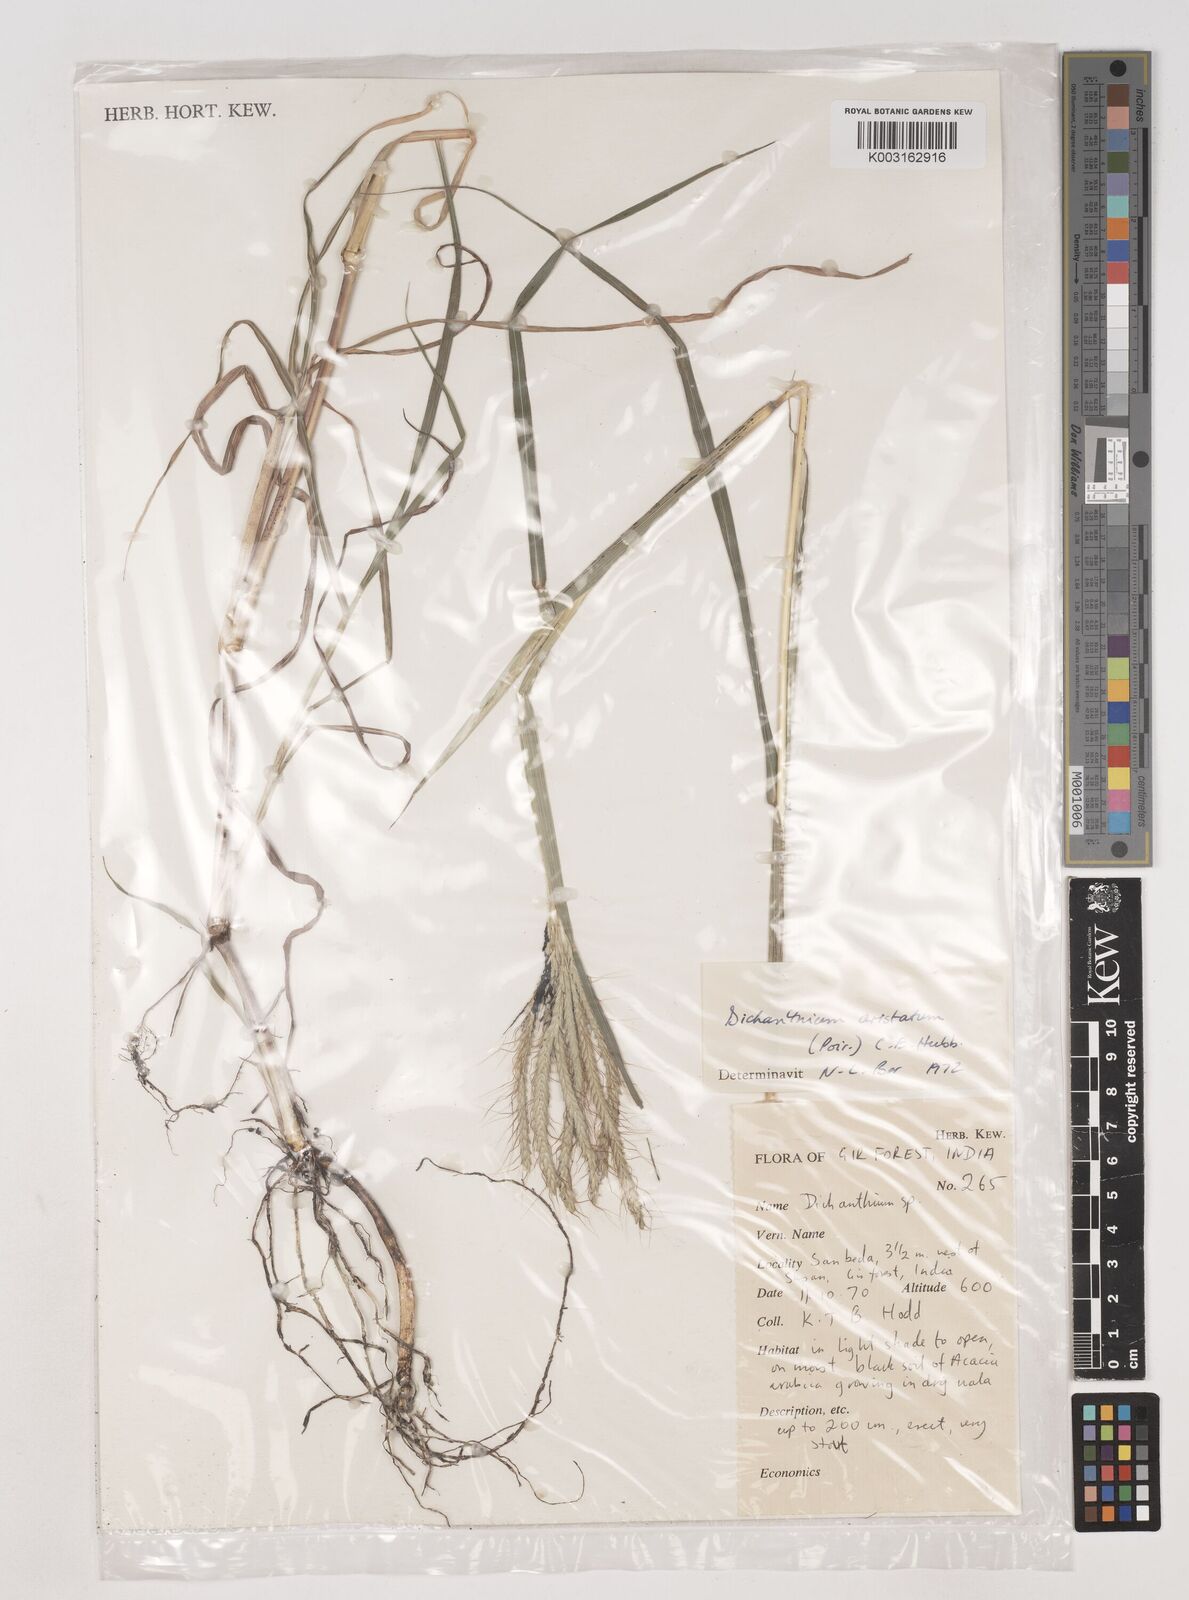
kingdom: Plantae
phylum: Tracheophyta
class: Liliopsida
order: Poales
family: Poaceae
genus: Dichanthium
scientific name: Dichanthium aristatum
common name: Angleton bluestem
